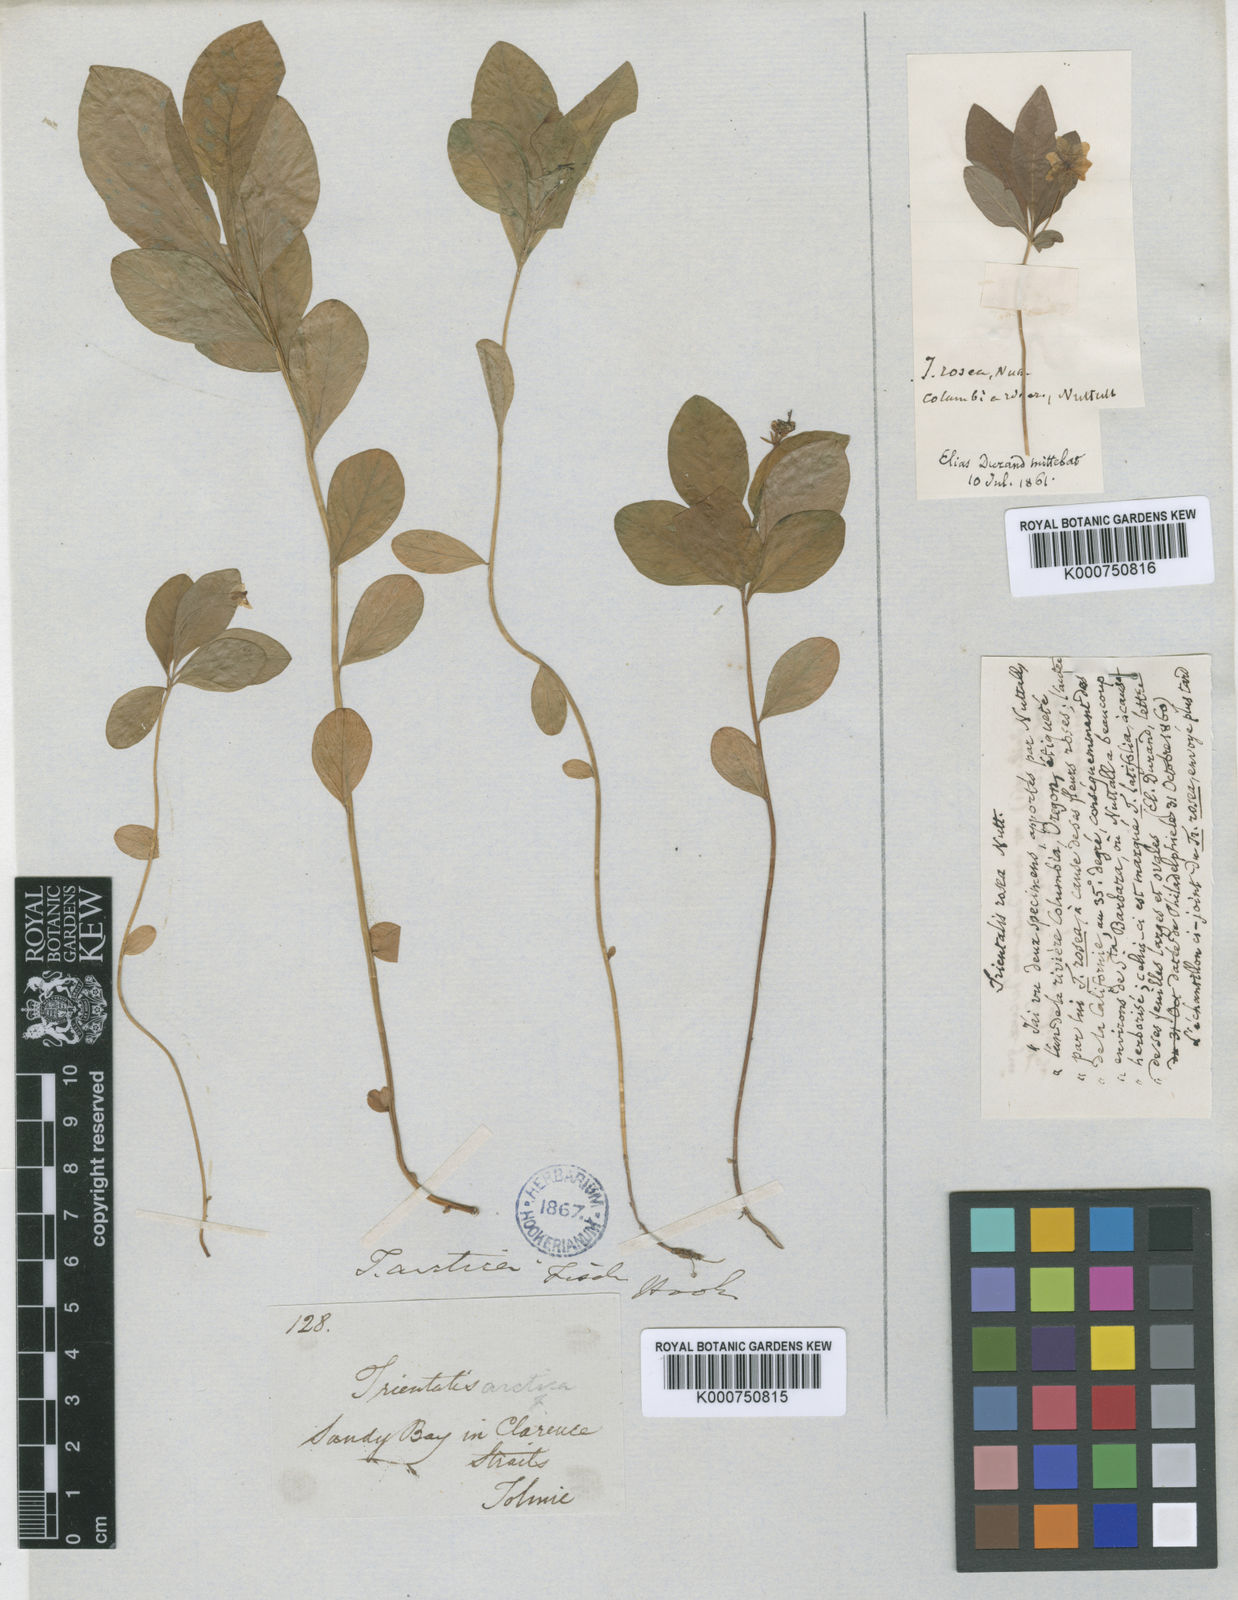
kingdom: Plantae
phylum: Tracheophyta
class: Magnoliopsida
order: Ericales
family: Primulaceae
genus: Lysimachia
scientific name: Lysimachia latifolia
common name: Pacific starflower
